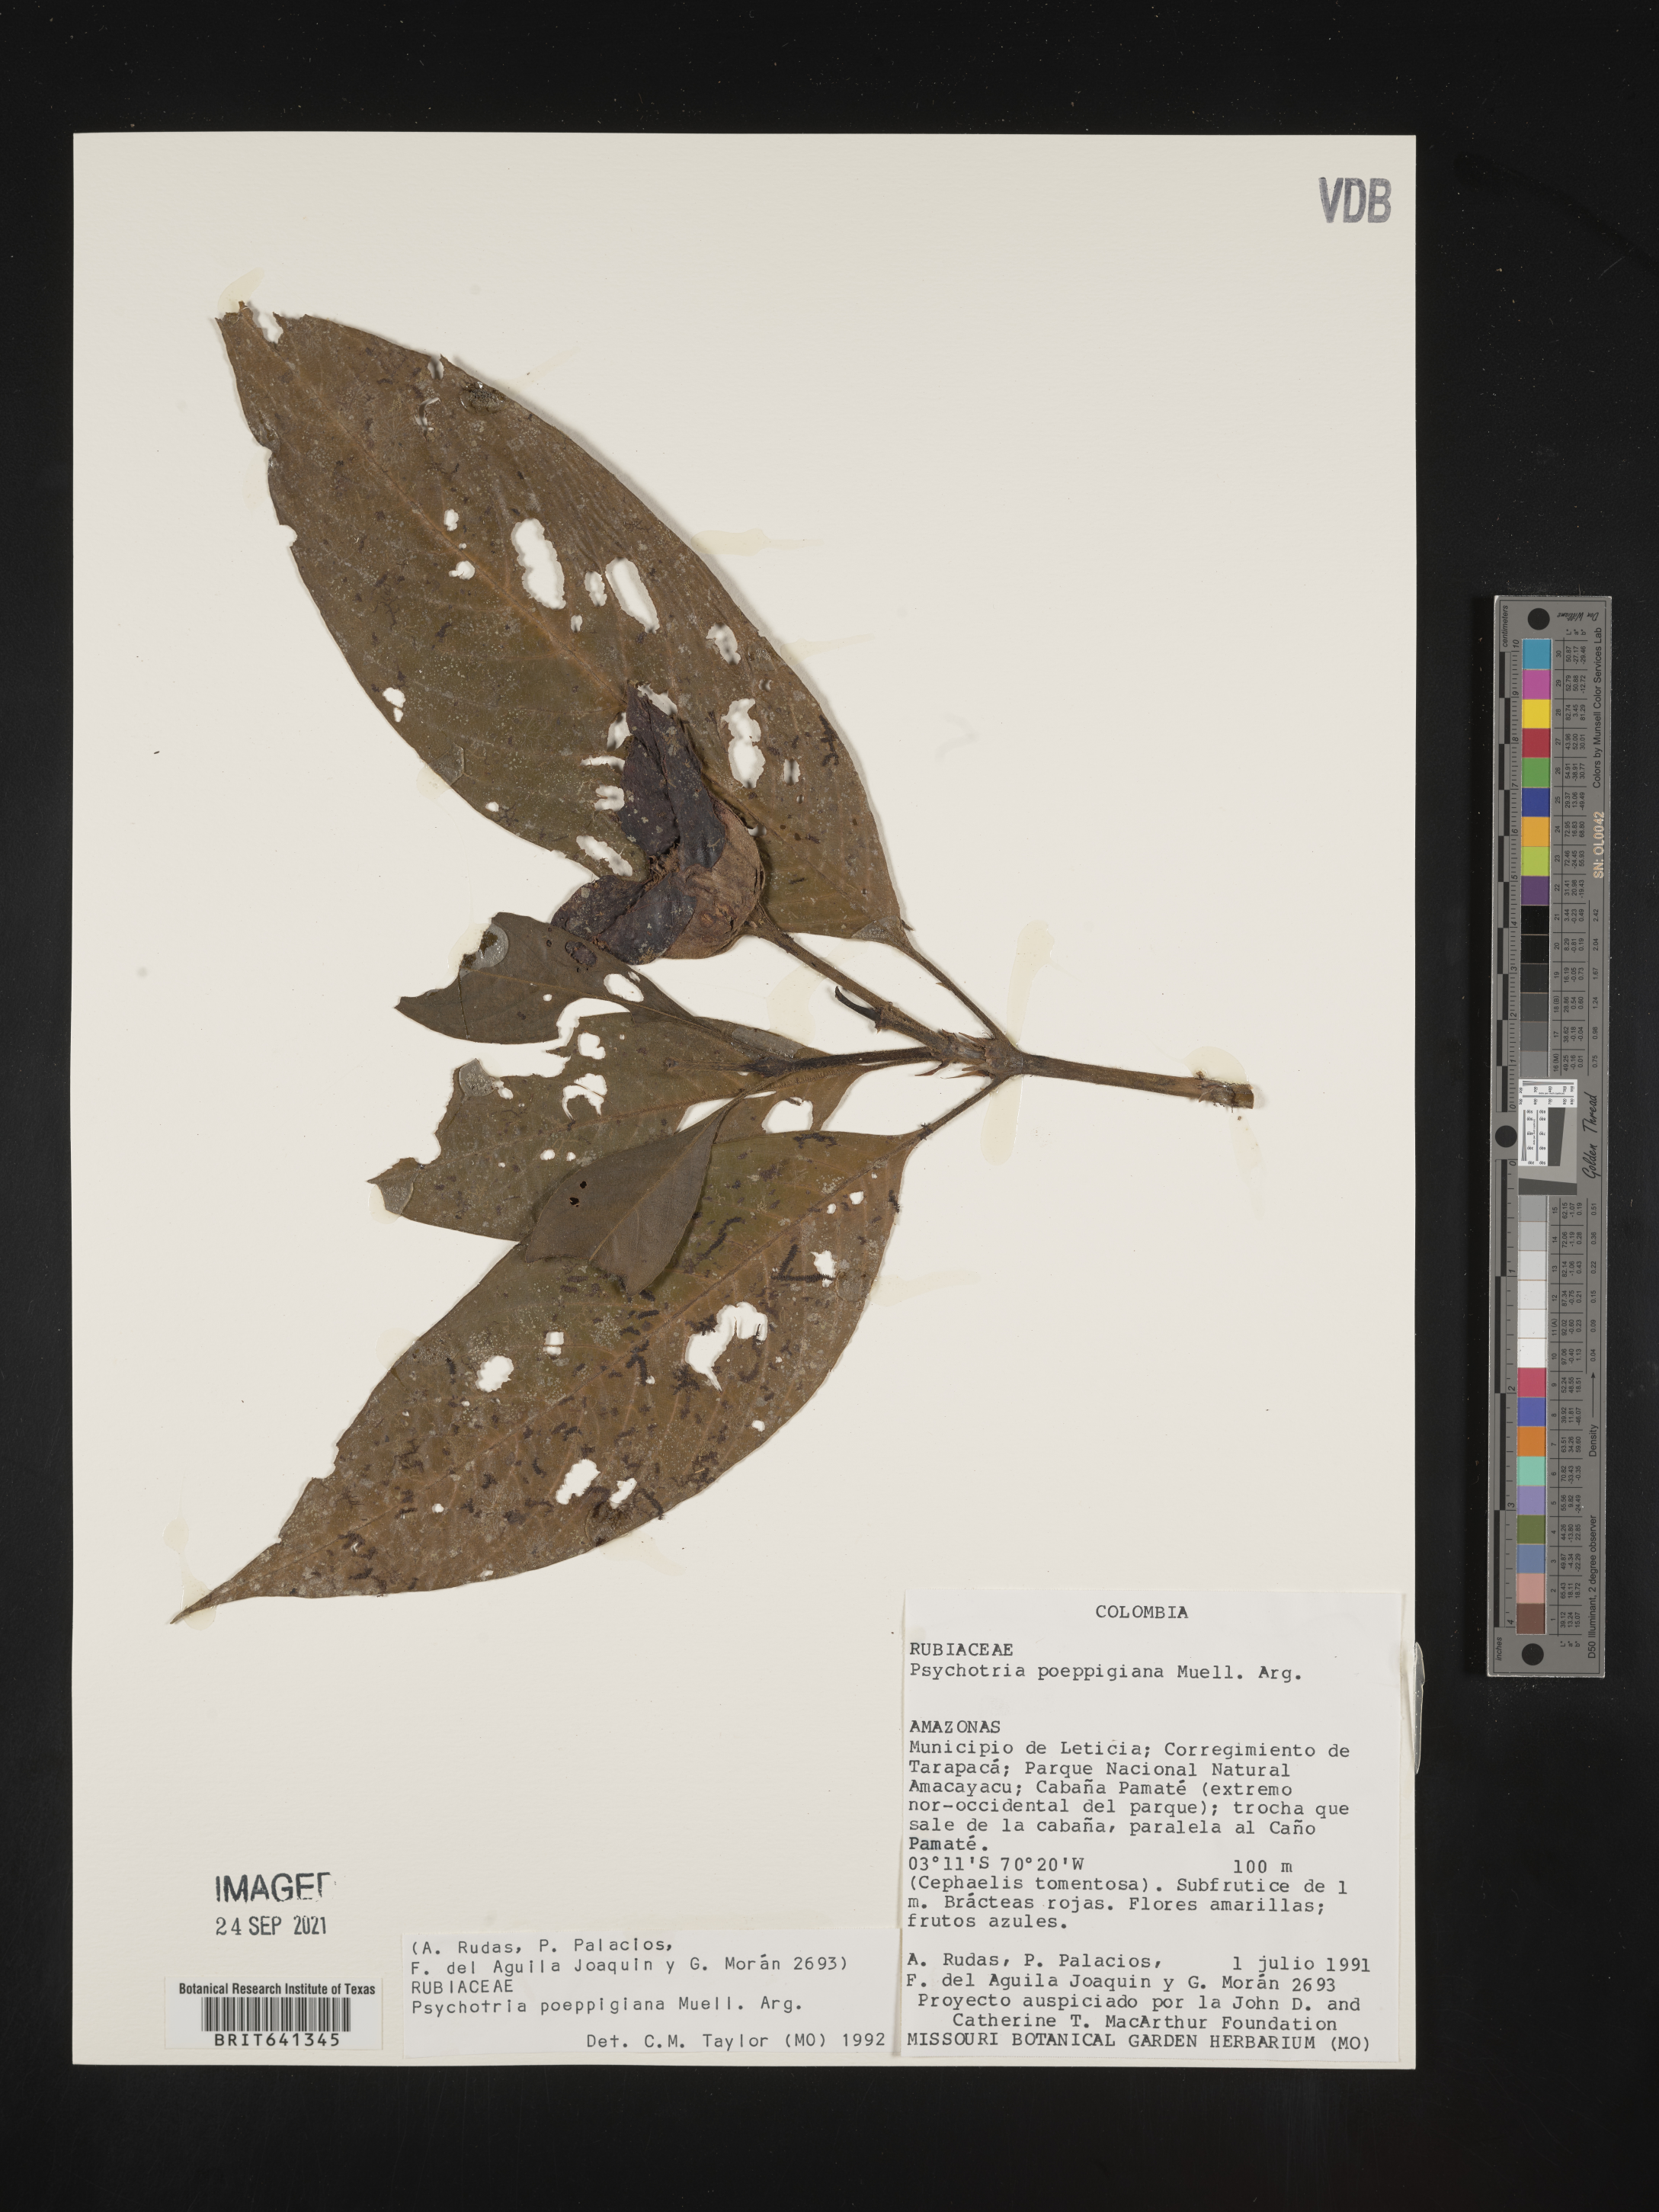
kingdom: Plantae
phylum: Tracheophyta
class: Magnoliopsida
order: Gentianales
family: Rubiaceae
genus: Psychotria
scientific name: Psychotria
